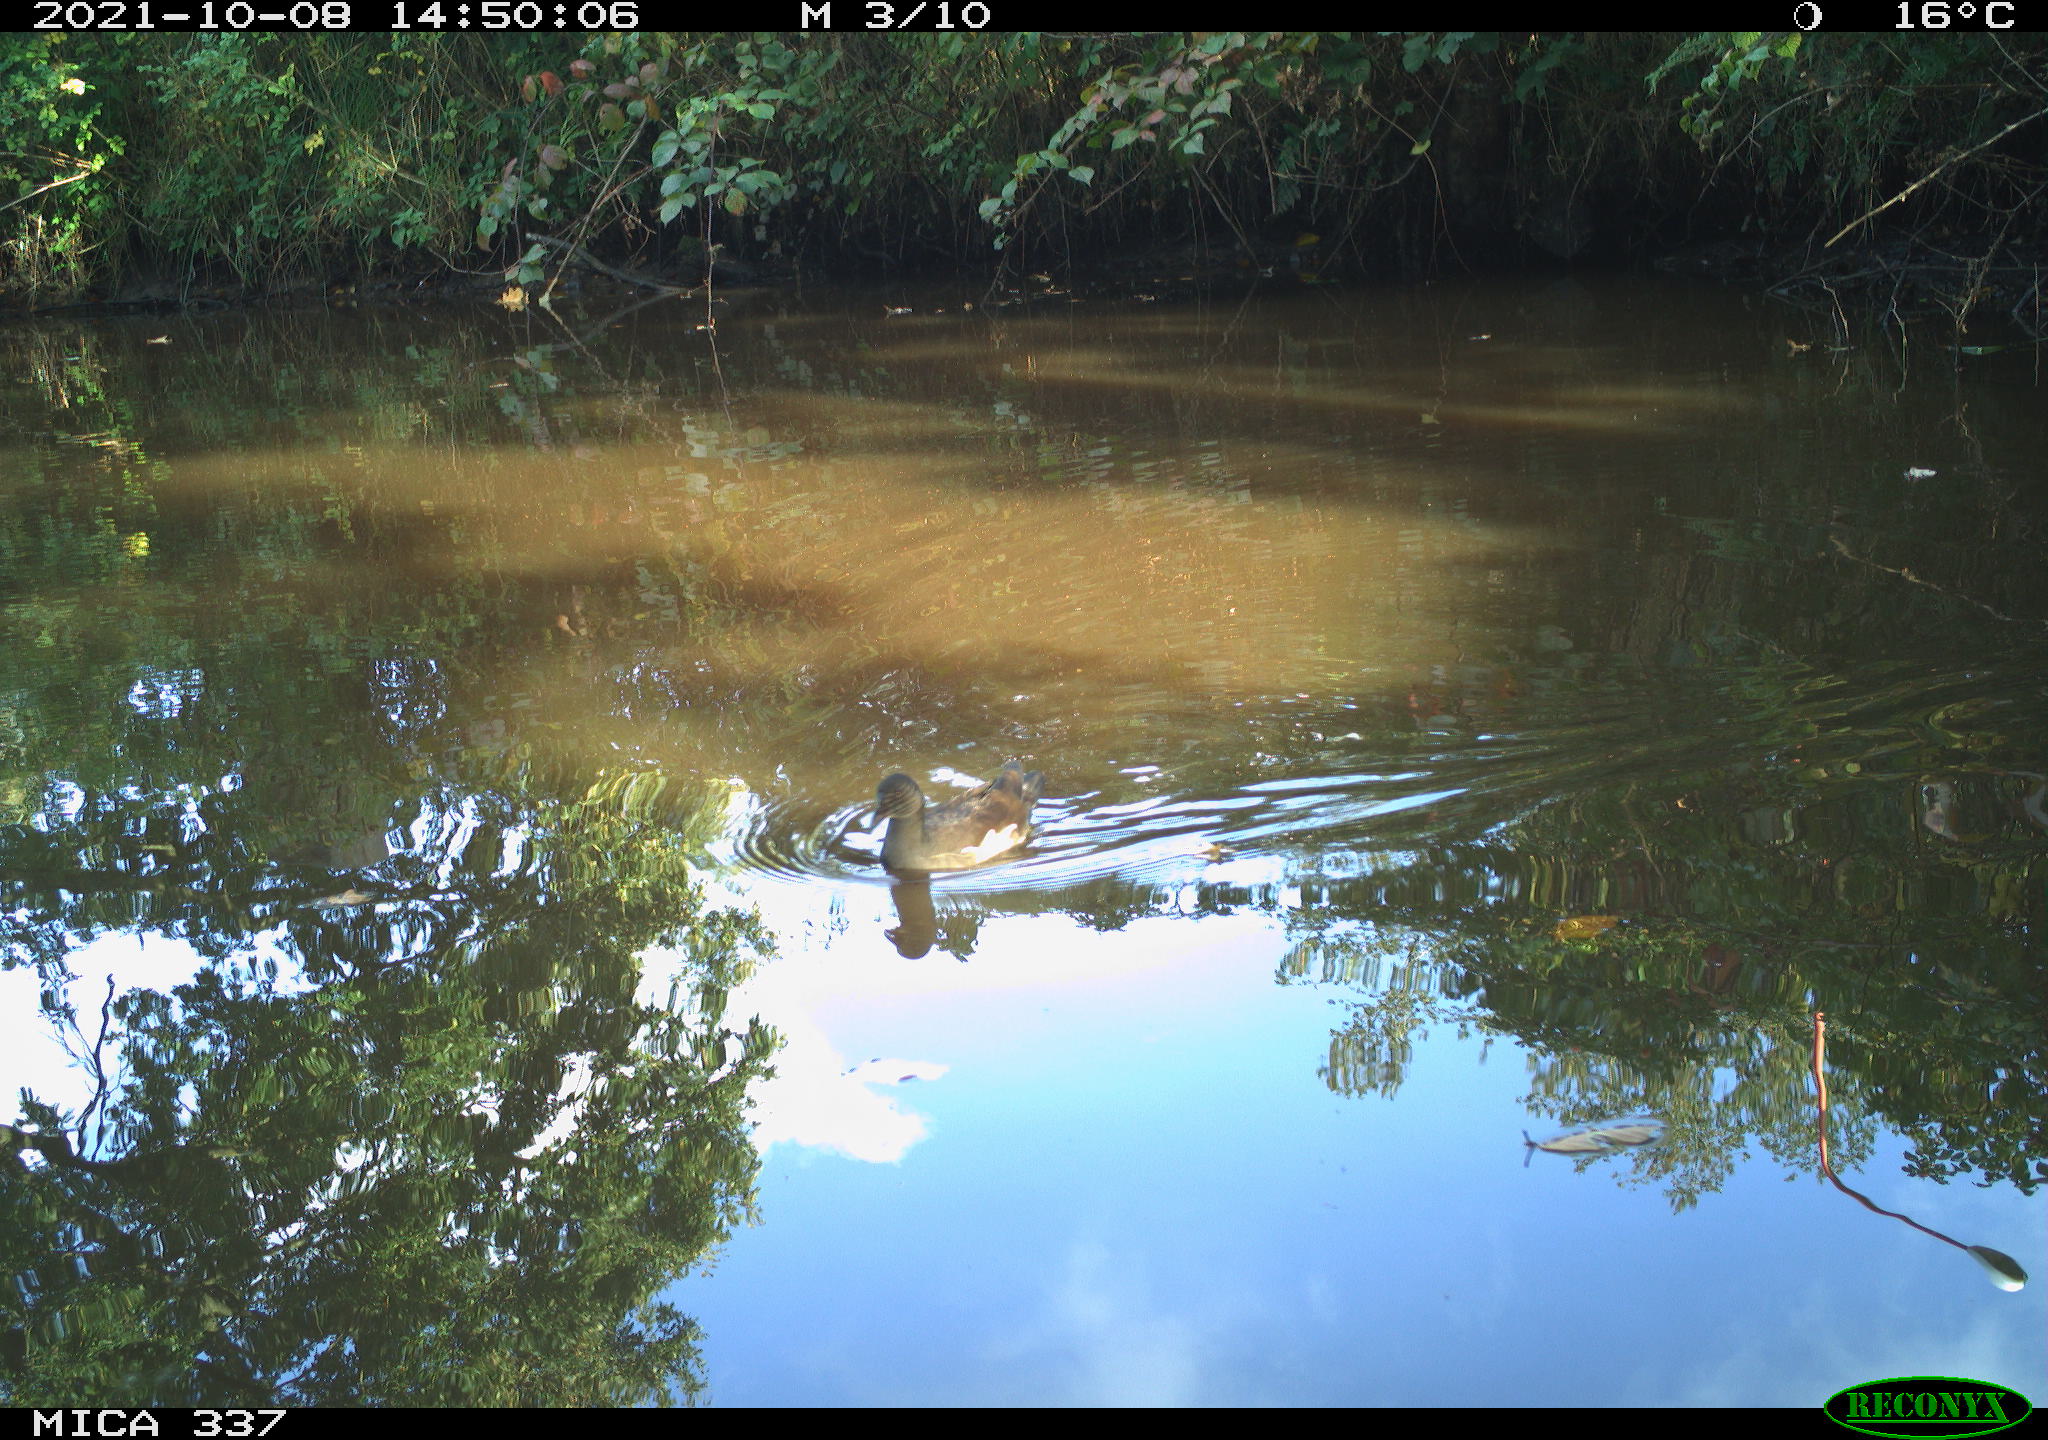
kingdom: Animalia
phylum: Chordata
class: Aves
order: Gruiformes
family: Rallidae
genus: Gallinula
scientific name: Gallinula chloropus
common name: Common moorhen
